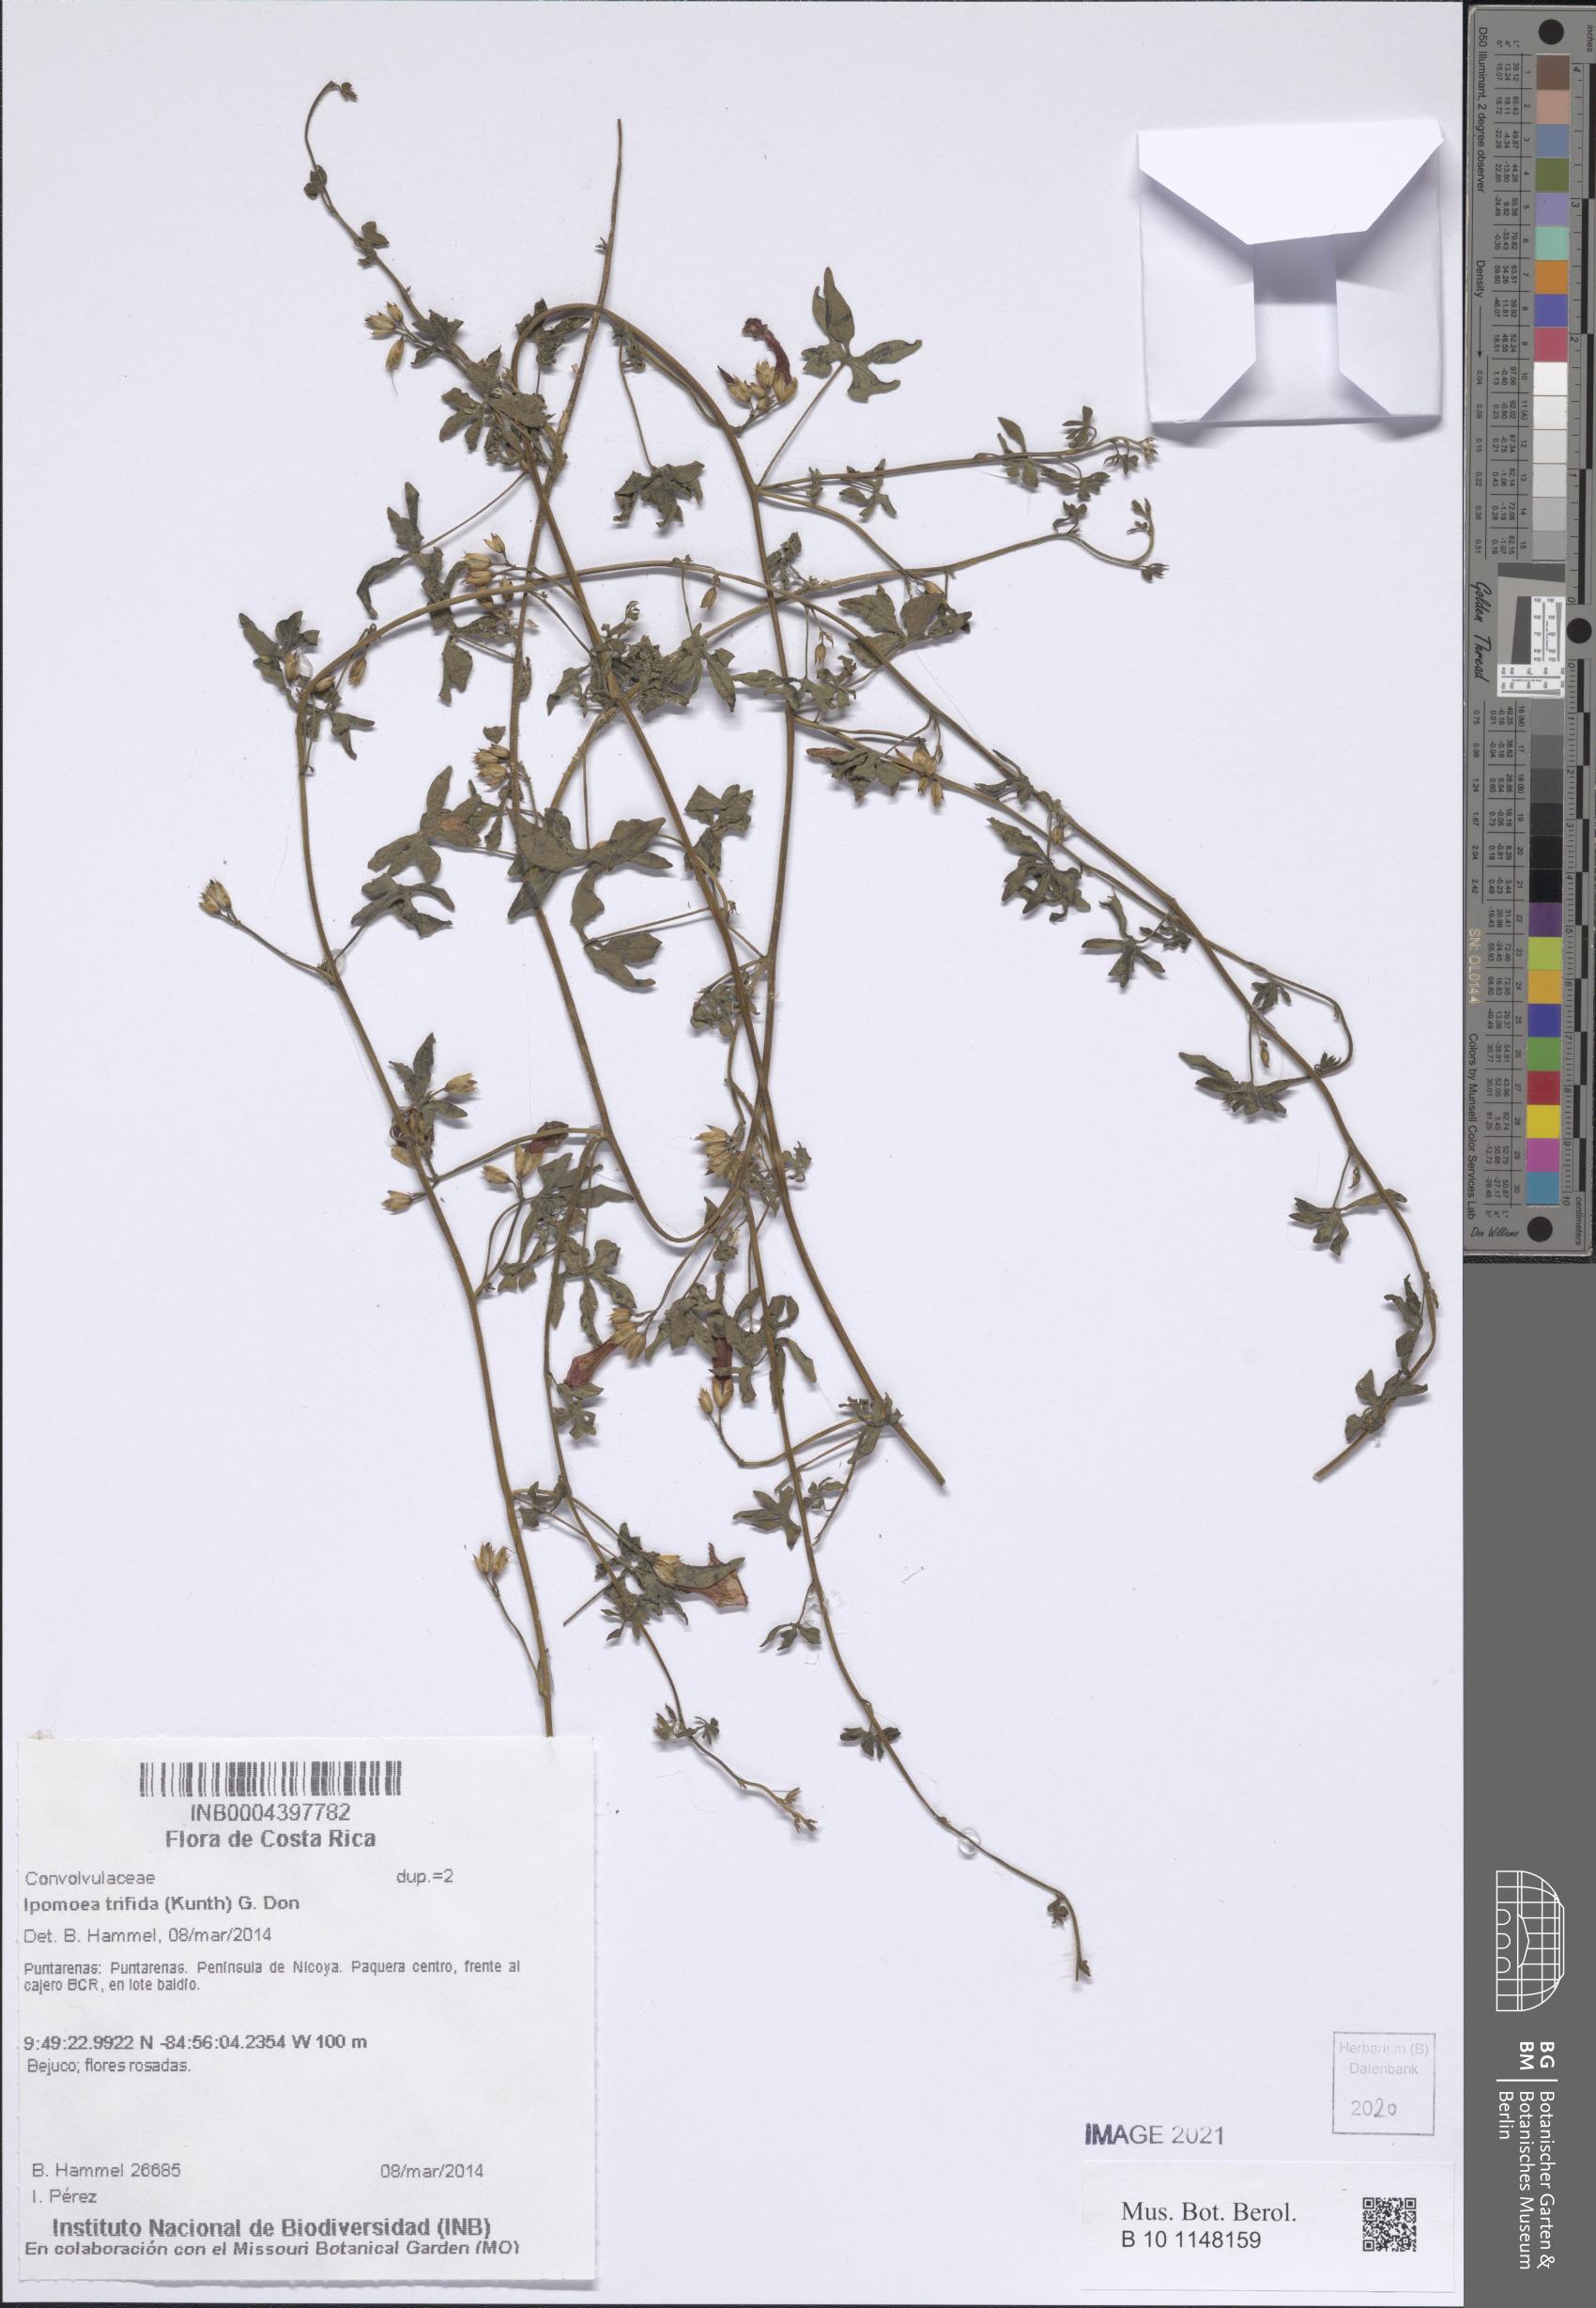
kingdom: Plantae
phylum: Tracheophyta
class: Magnoliopsida
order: Solanales
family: Convolvulaceae
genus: Ipomoea
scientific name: Ipomoea trifida
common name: Cotton morningglory
